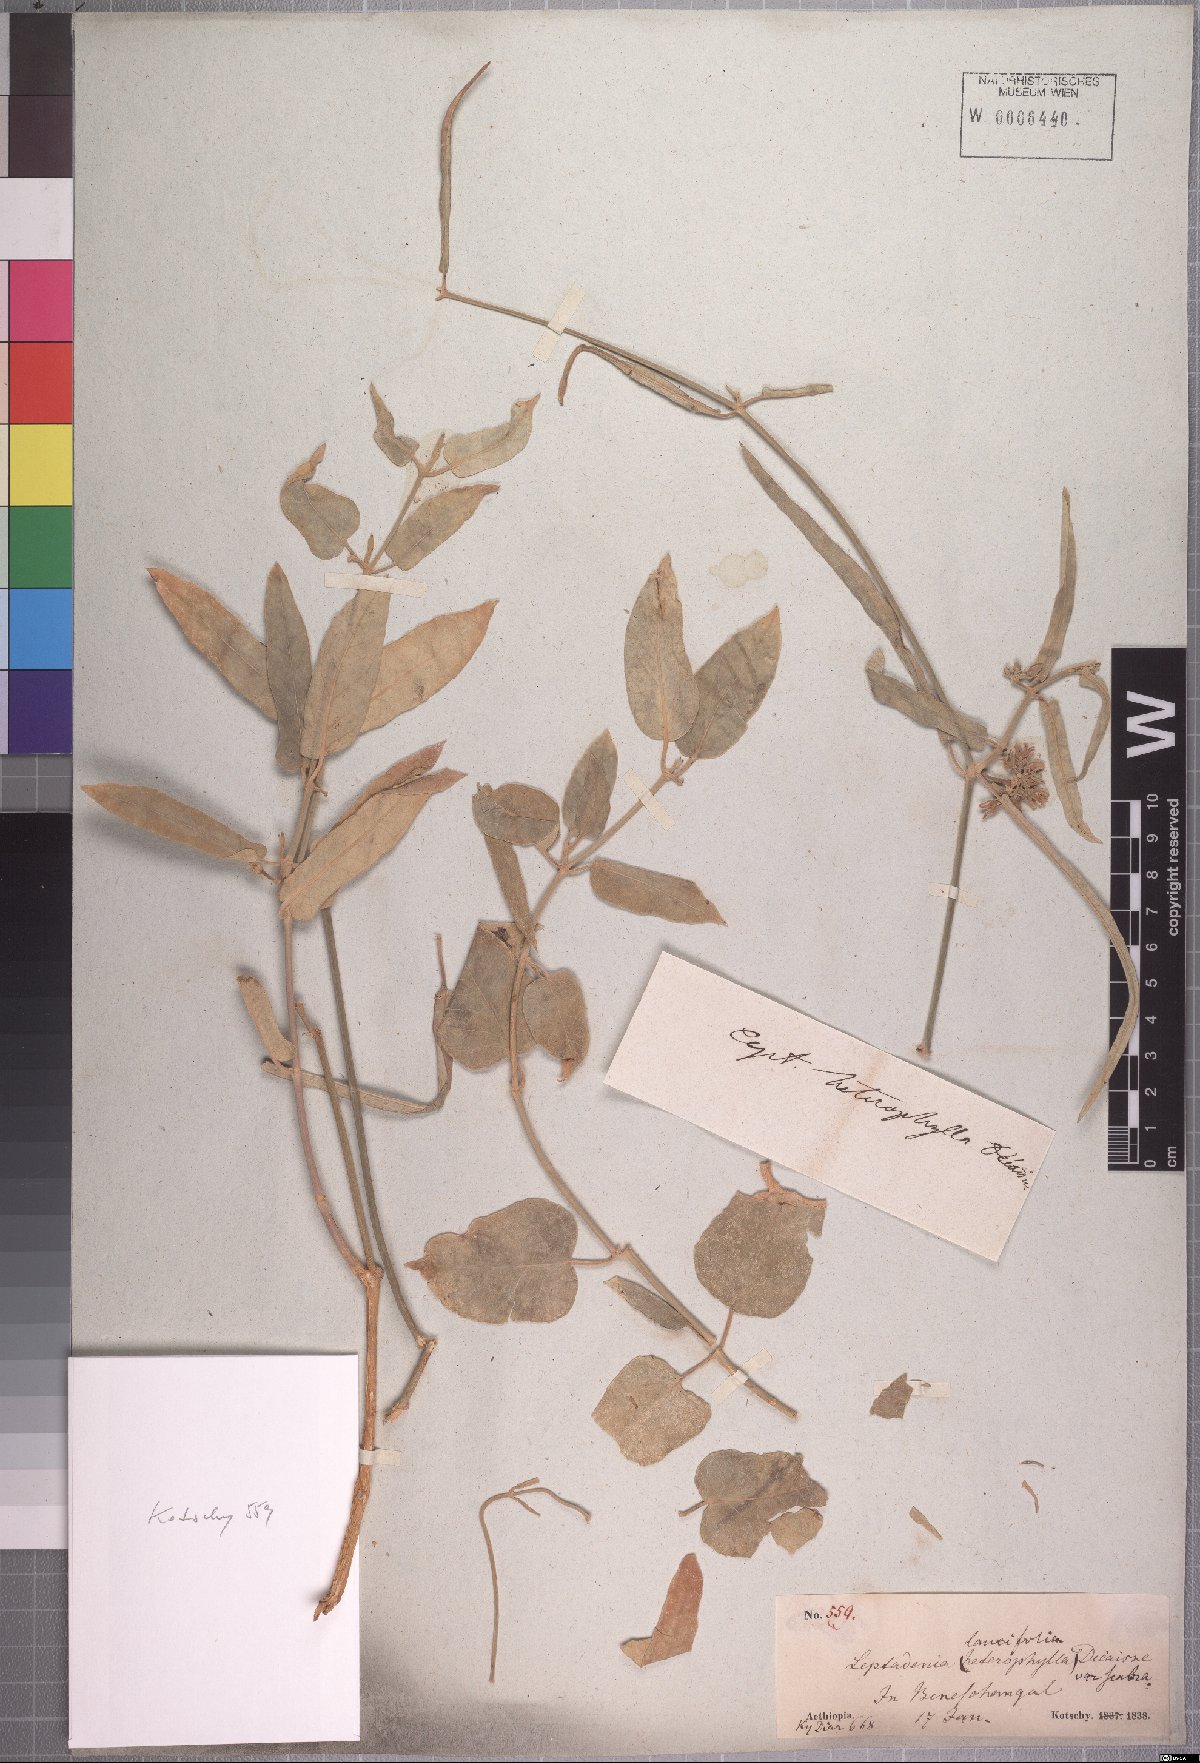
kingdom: Plantae
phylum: Tracheophyta
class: Magnoliopsida
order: Gentianales
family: Apocynaceae
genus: Leptadenia
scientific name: Leptadenia lanceolata
